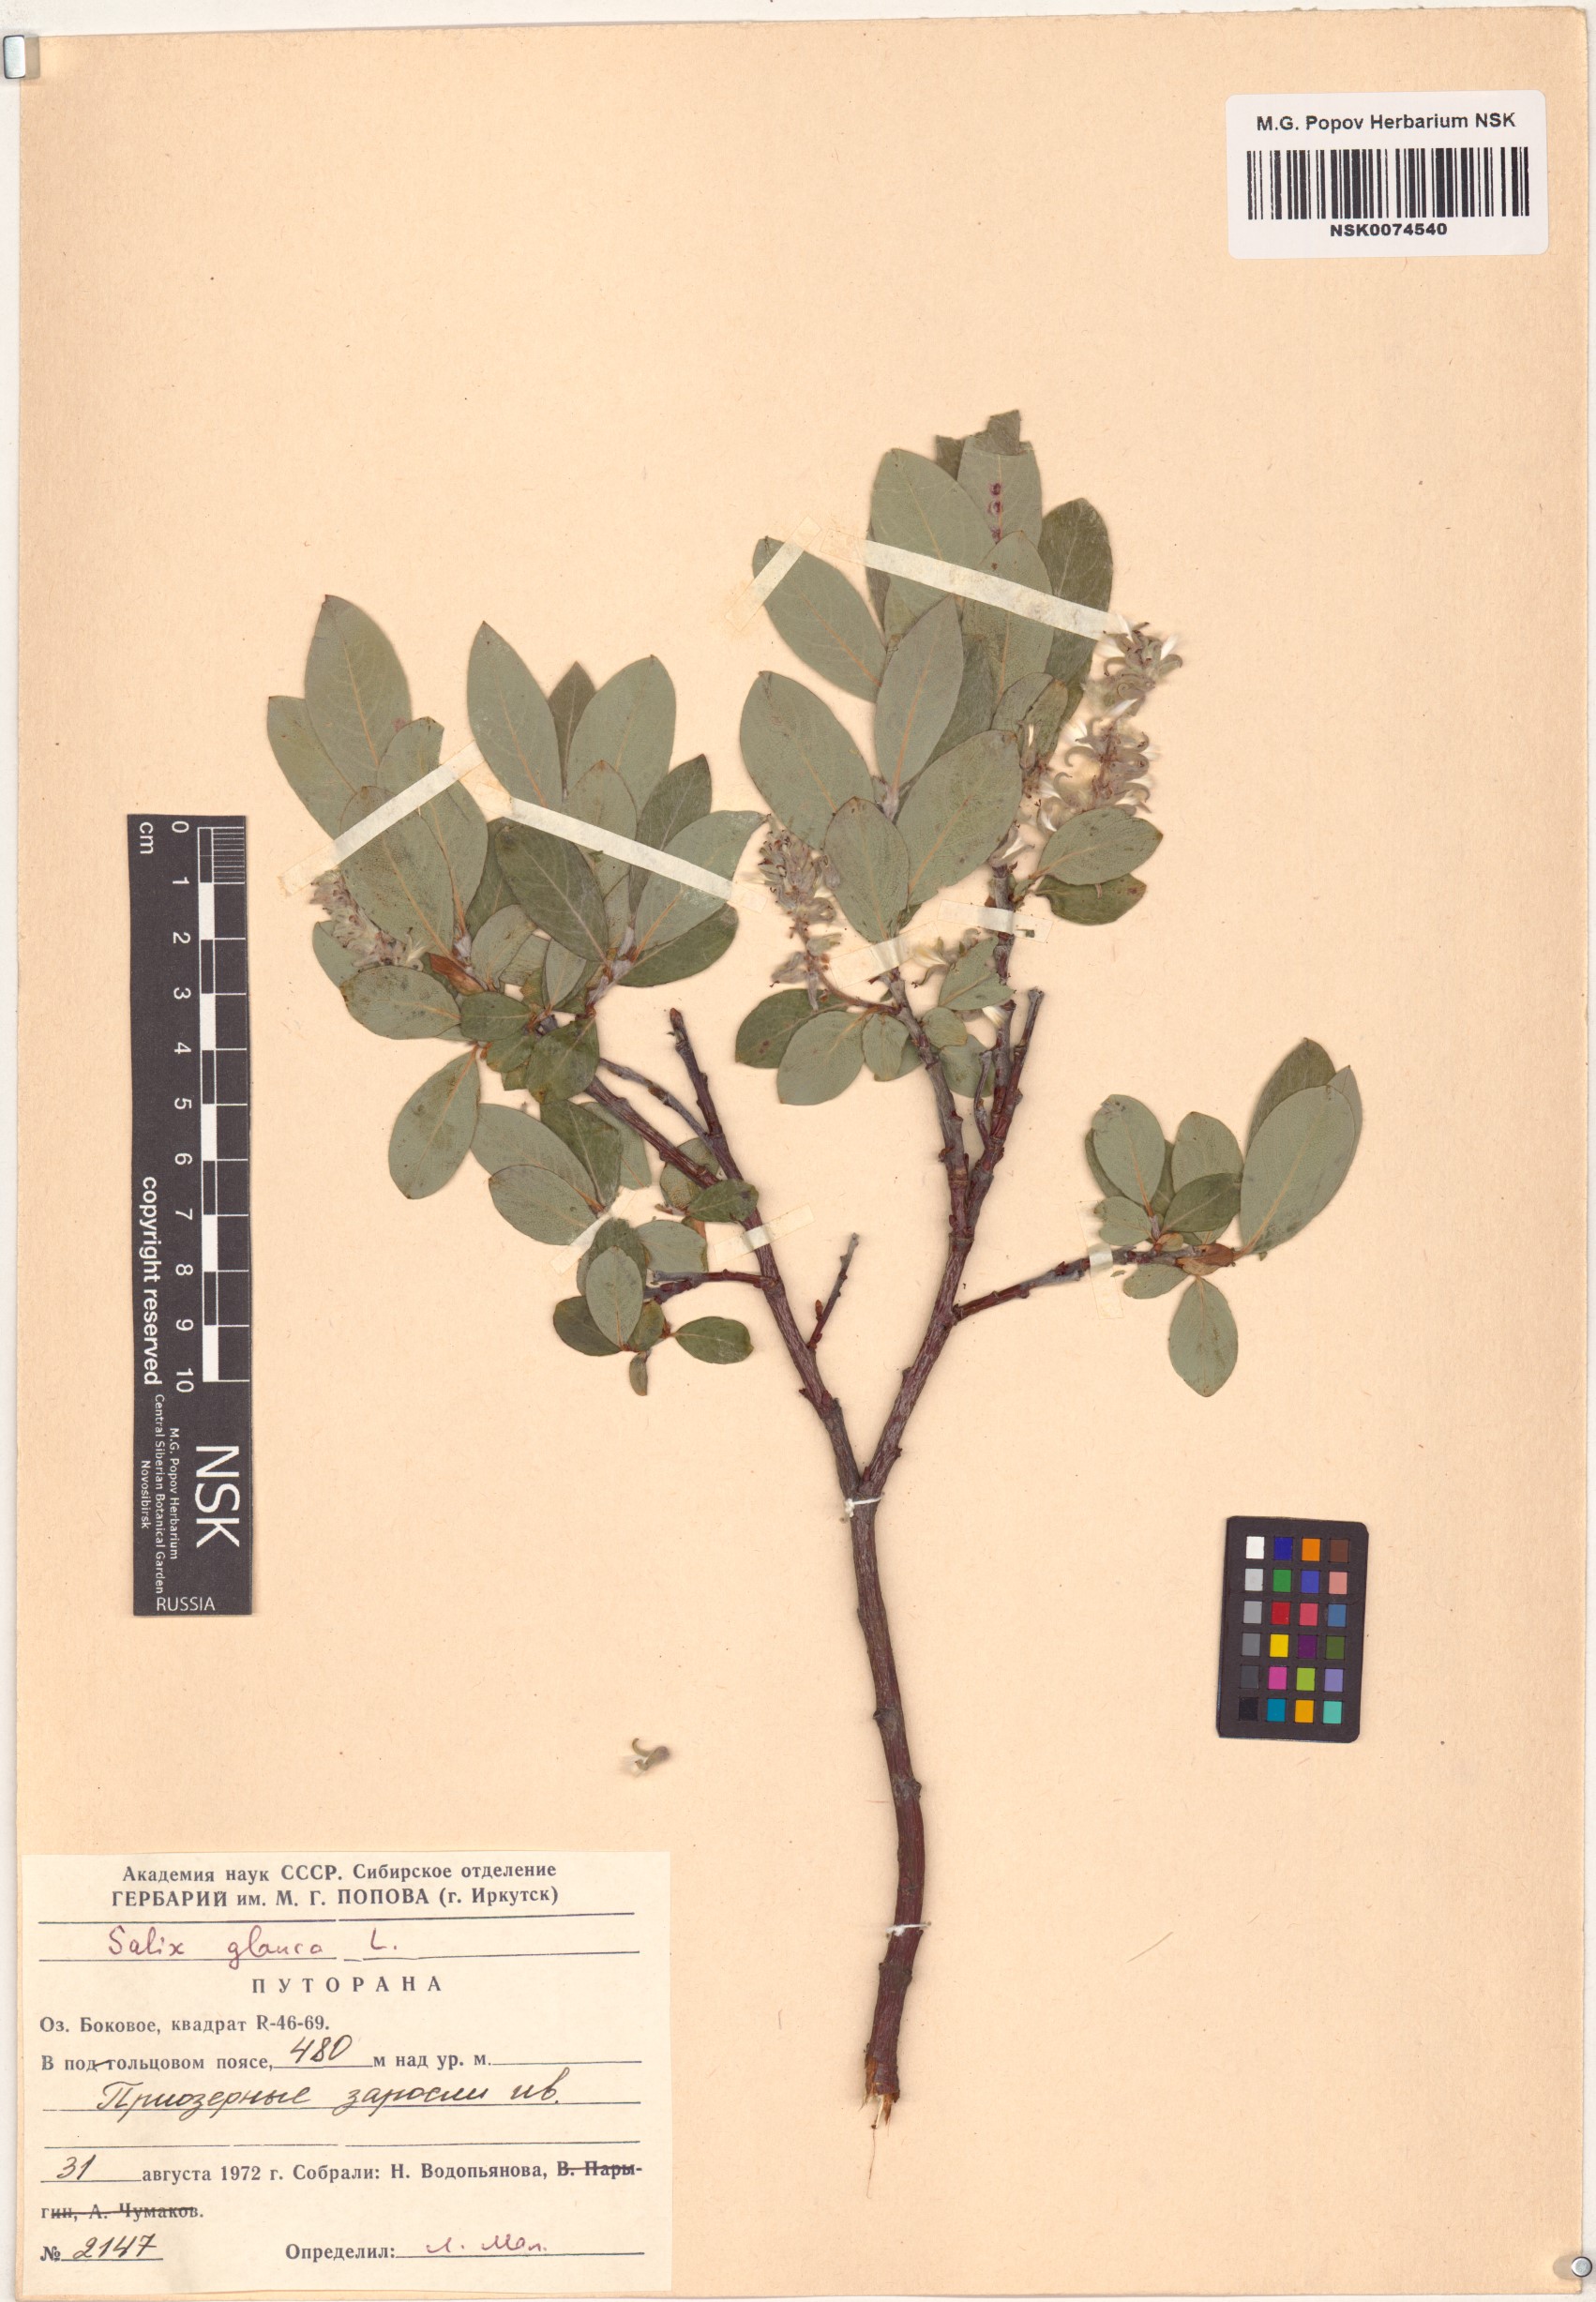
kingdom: Plantae
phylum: Tracheophyta
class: Magnoliopsida
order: Malpighiales
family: Salicaceae
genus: Salix
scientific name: Salix glauca
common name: Glaucous willow
